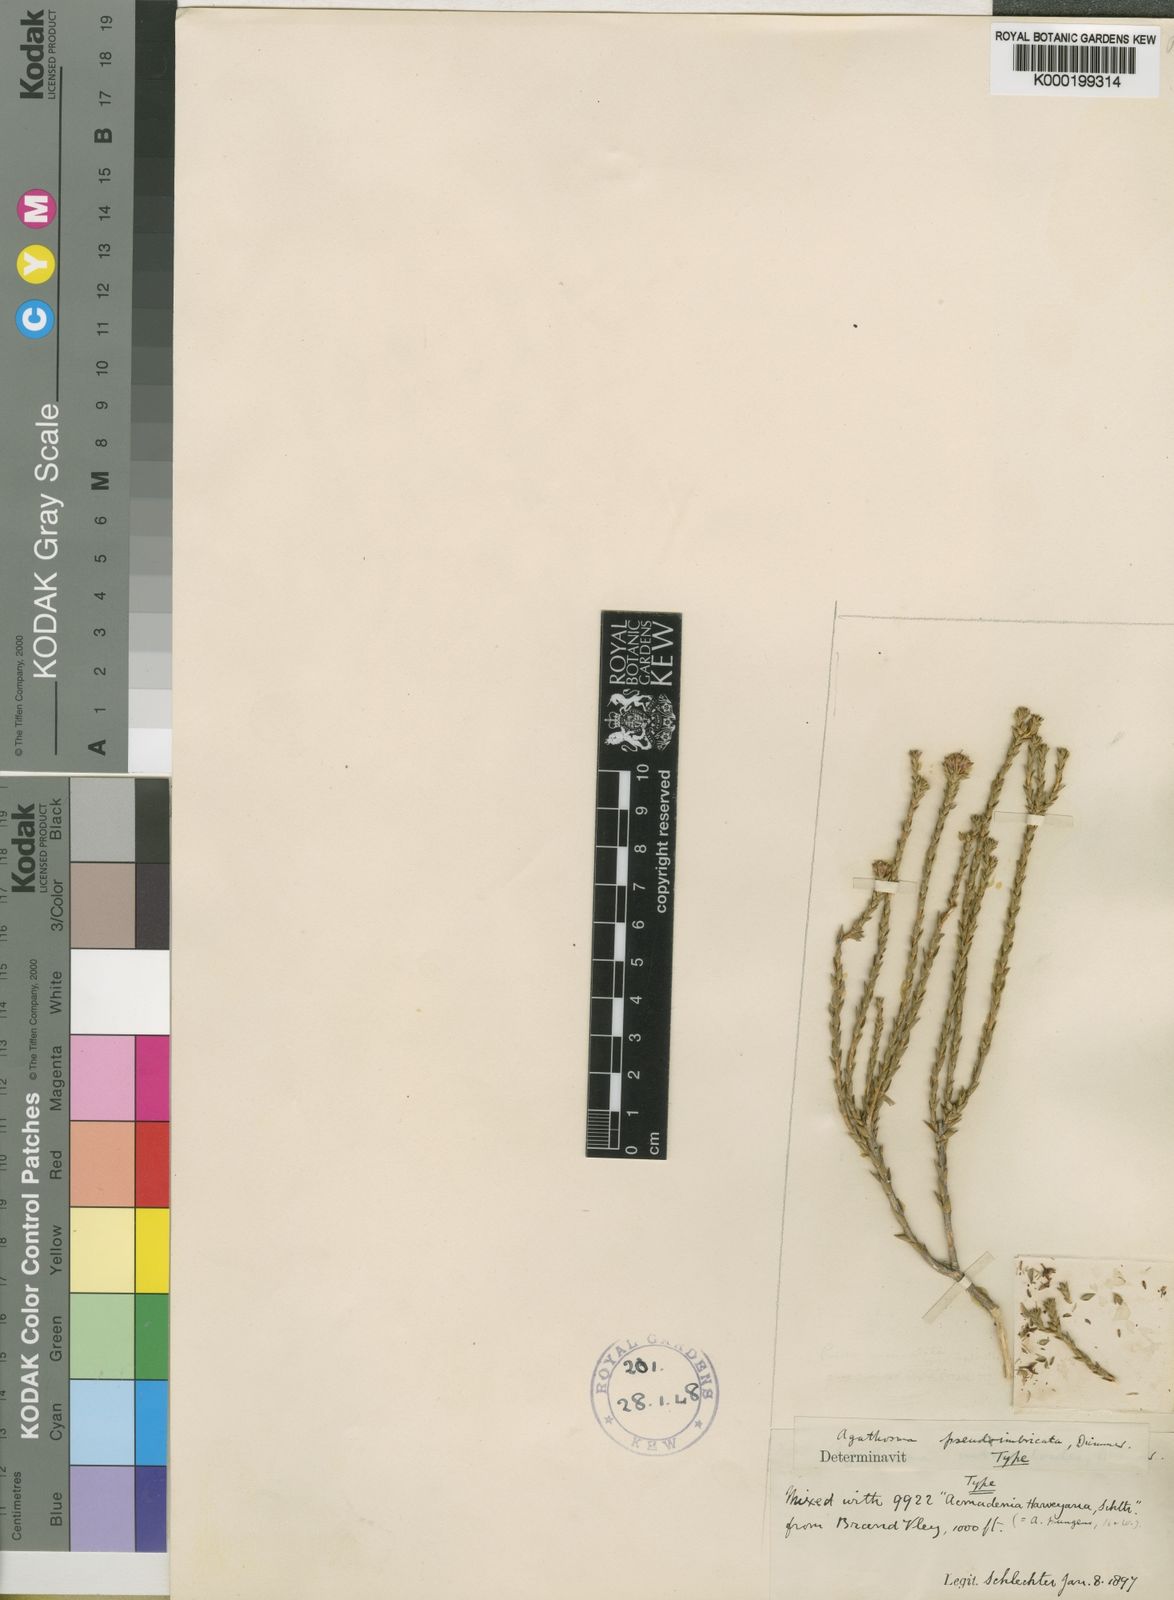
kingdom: Plantae
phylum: Tracheophyta
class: Magnoliopsida
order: Sapindales
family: Rutaceae
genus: Agathosma
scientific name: Agathosma imbricata
